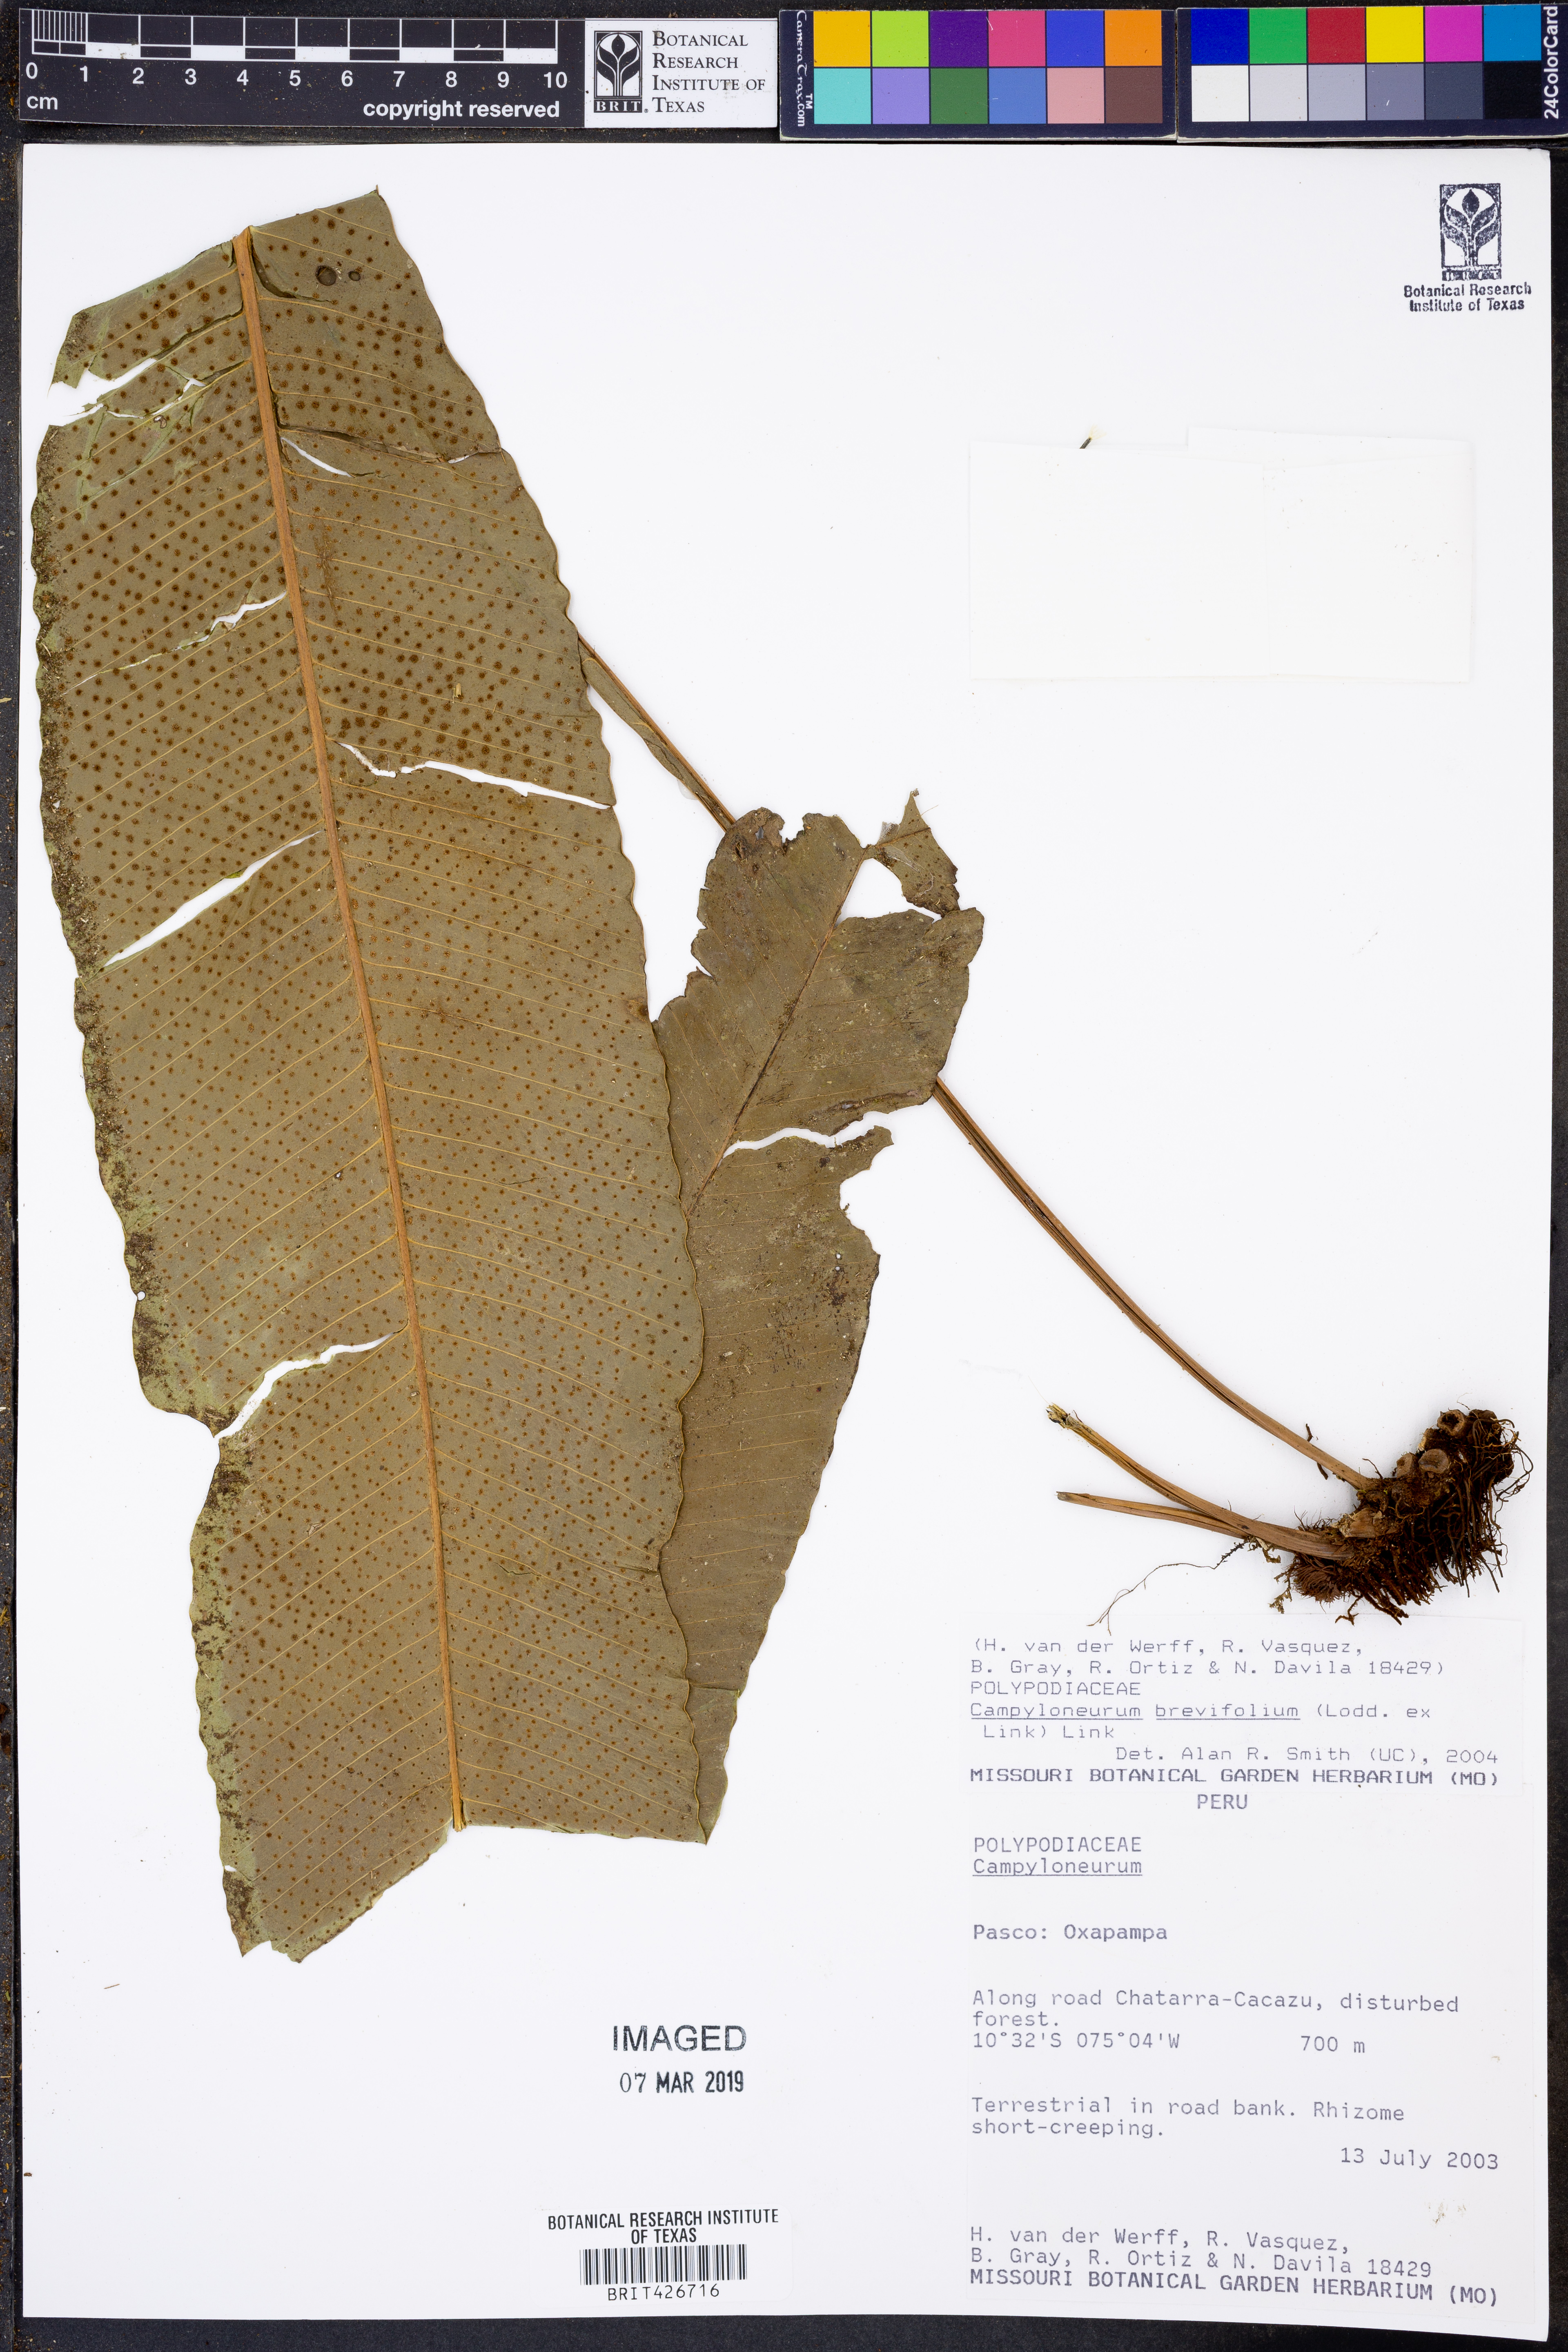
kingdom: Plantae
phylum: Tracheophyta
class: Polypodiopsida
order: Polypodiales
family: Polypodiaceae
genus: Campyloneurum
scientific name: Campyloneurum brevifolium
